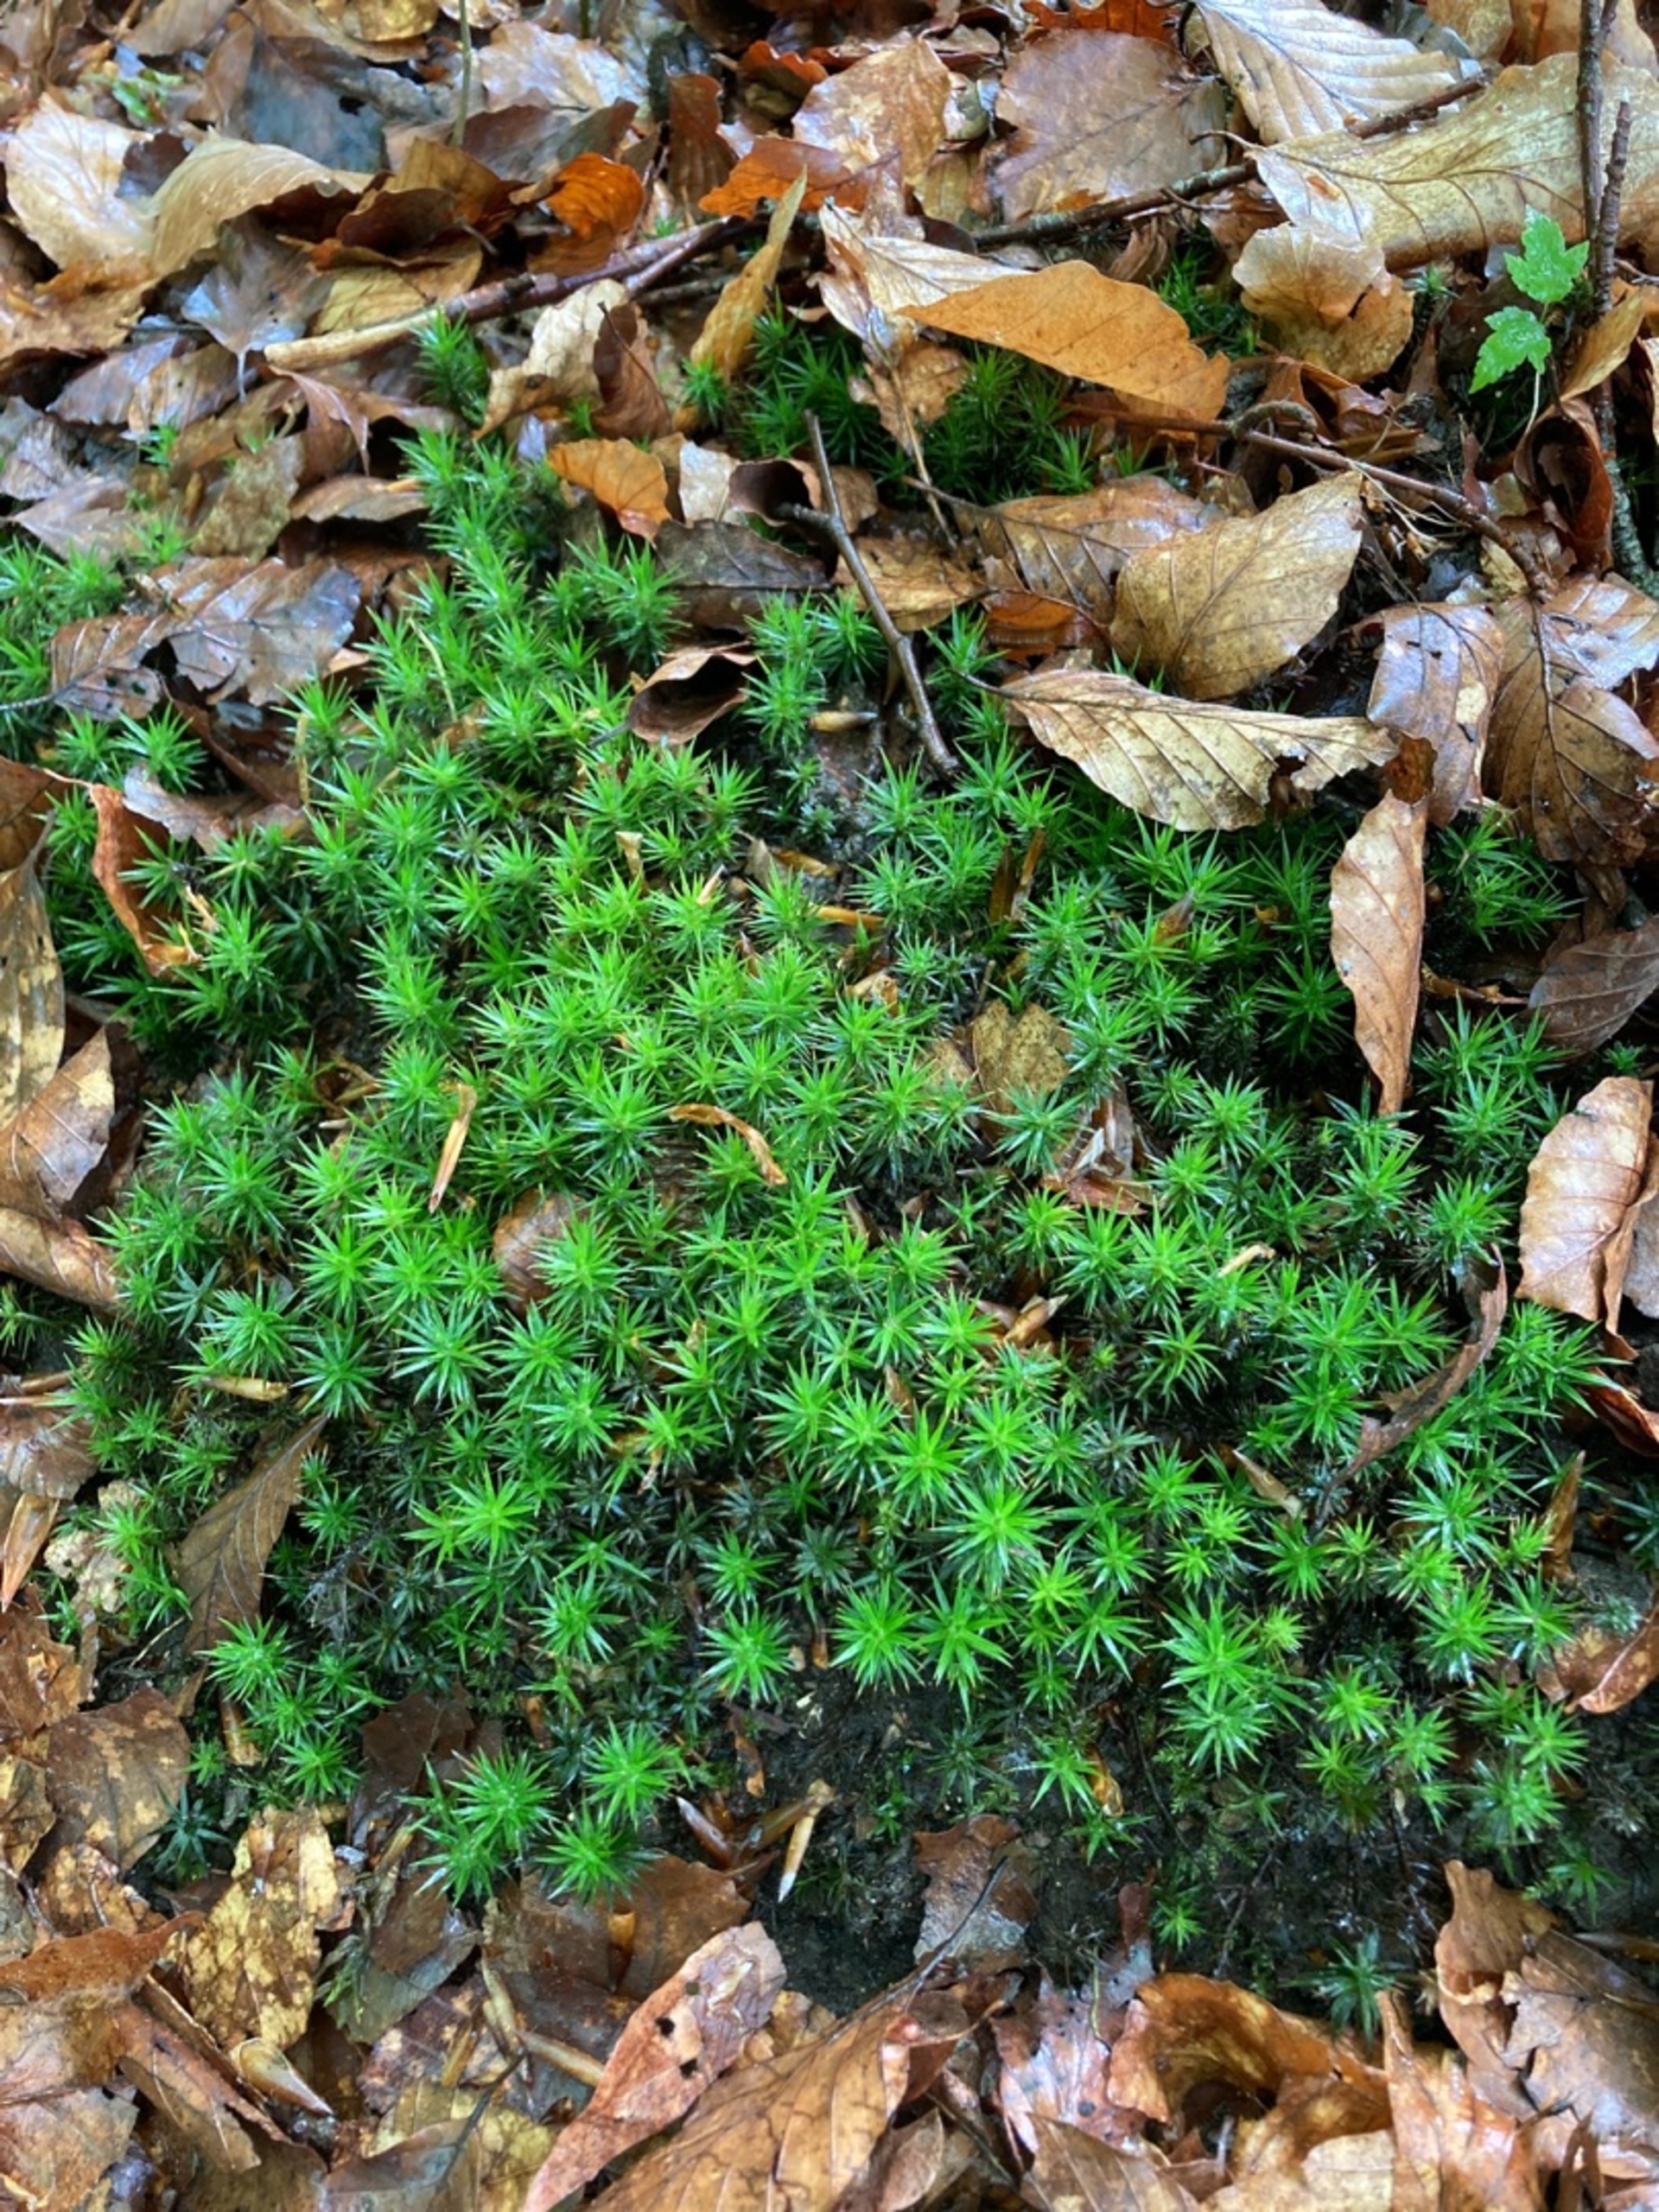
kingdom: Plantae
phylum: Bryophyta
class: Polytrichopsida
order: Polytrichales
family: Polytrichaceae
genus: Polytrichum
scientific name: Polytrichum formosum
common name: Skov-jomfruhår
